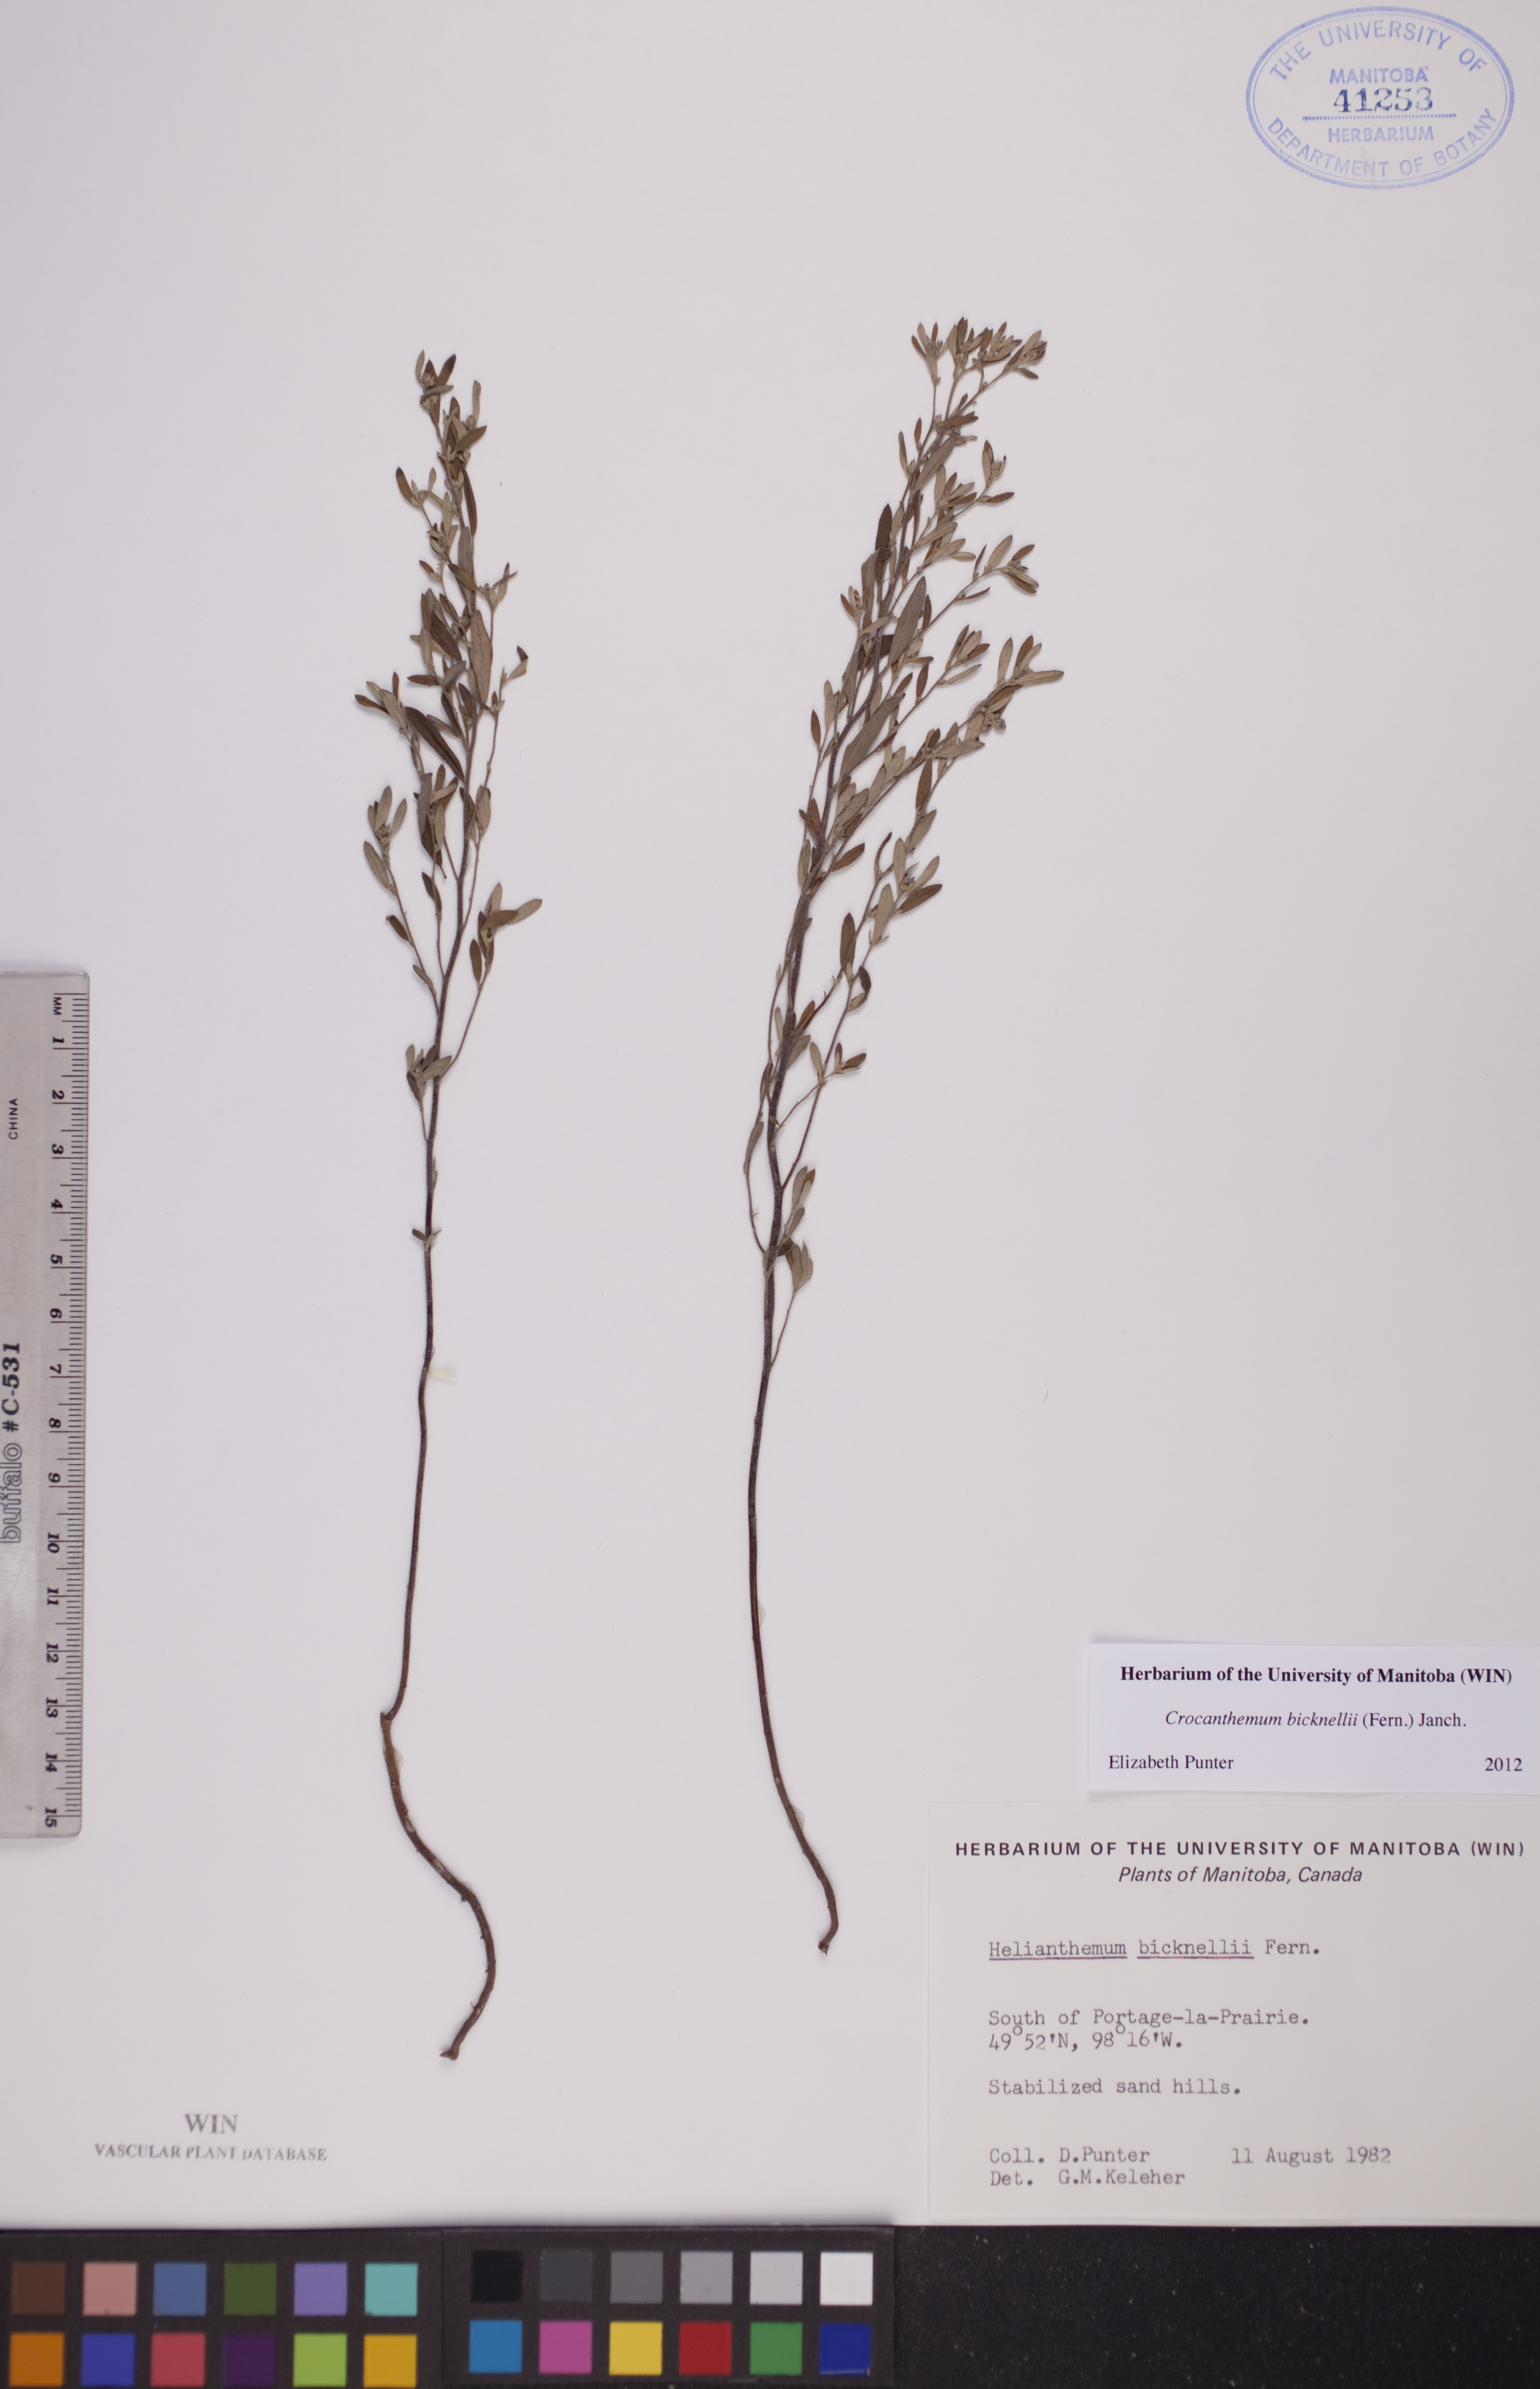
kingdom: Plantae
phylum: Tracheophyta
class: Magnoliopsida
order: Malvales
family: Cistaceae
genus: Crocanthemum
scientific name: Crocanthemum bicknellii
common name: Hoary frostweed
